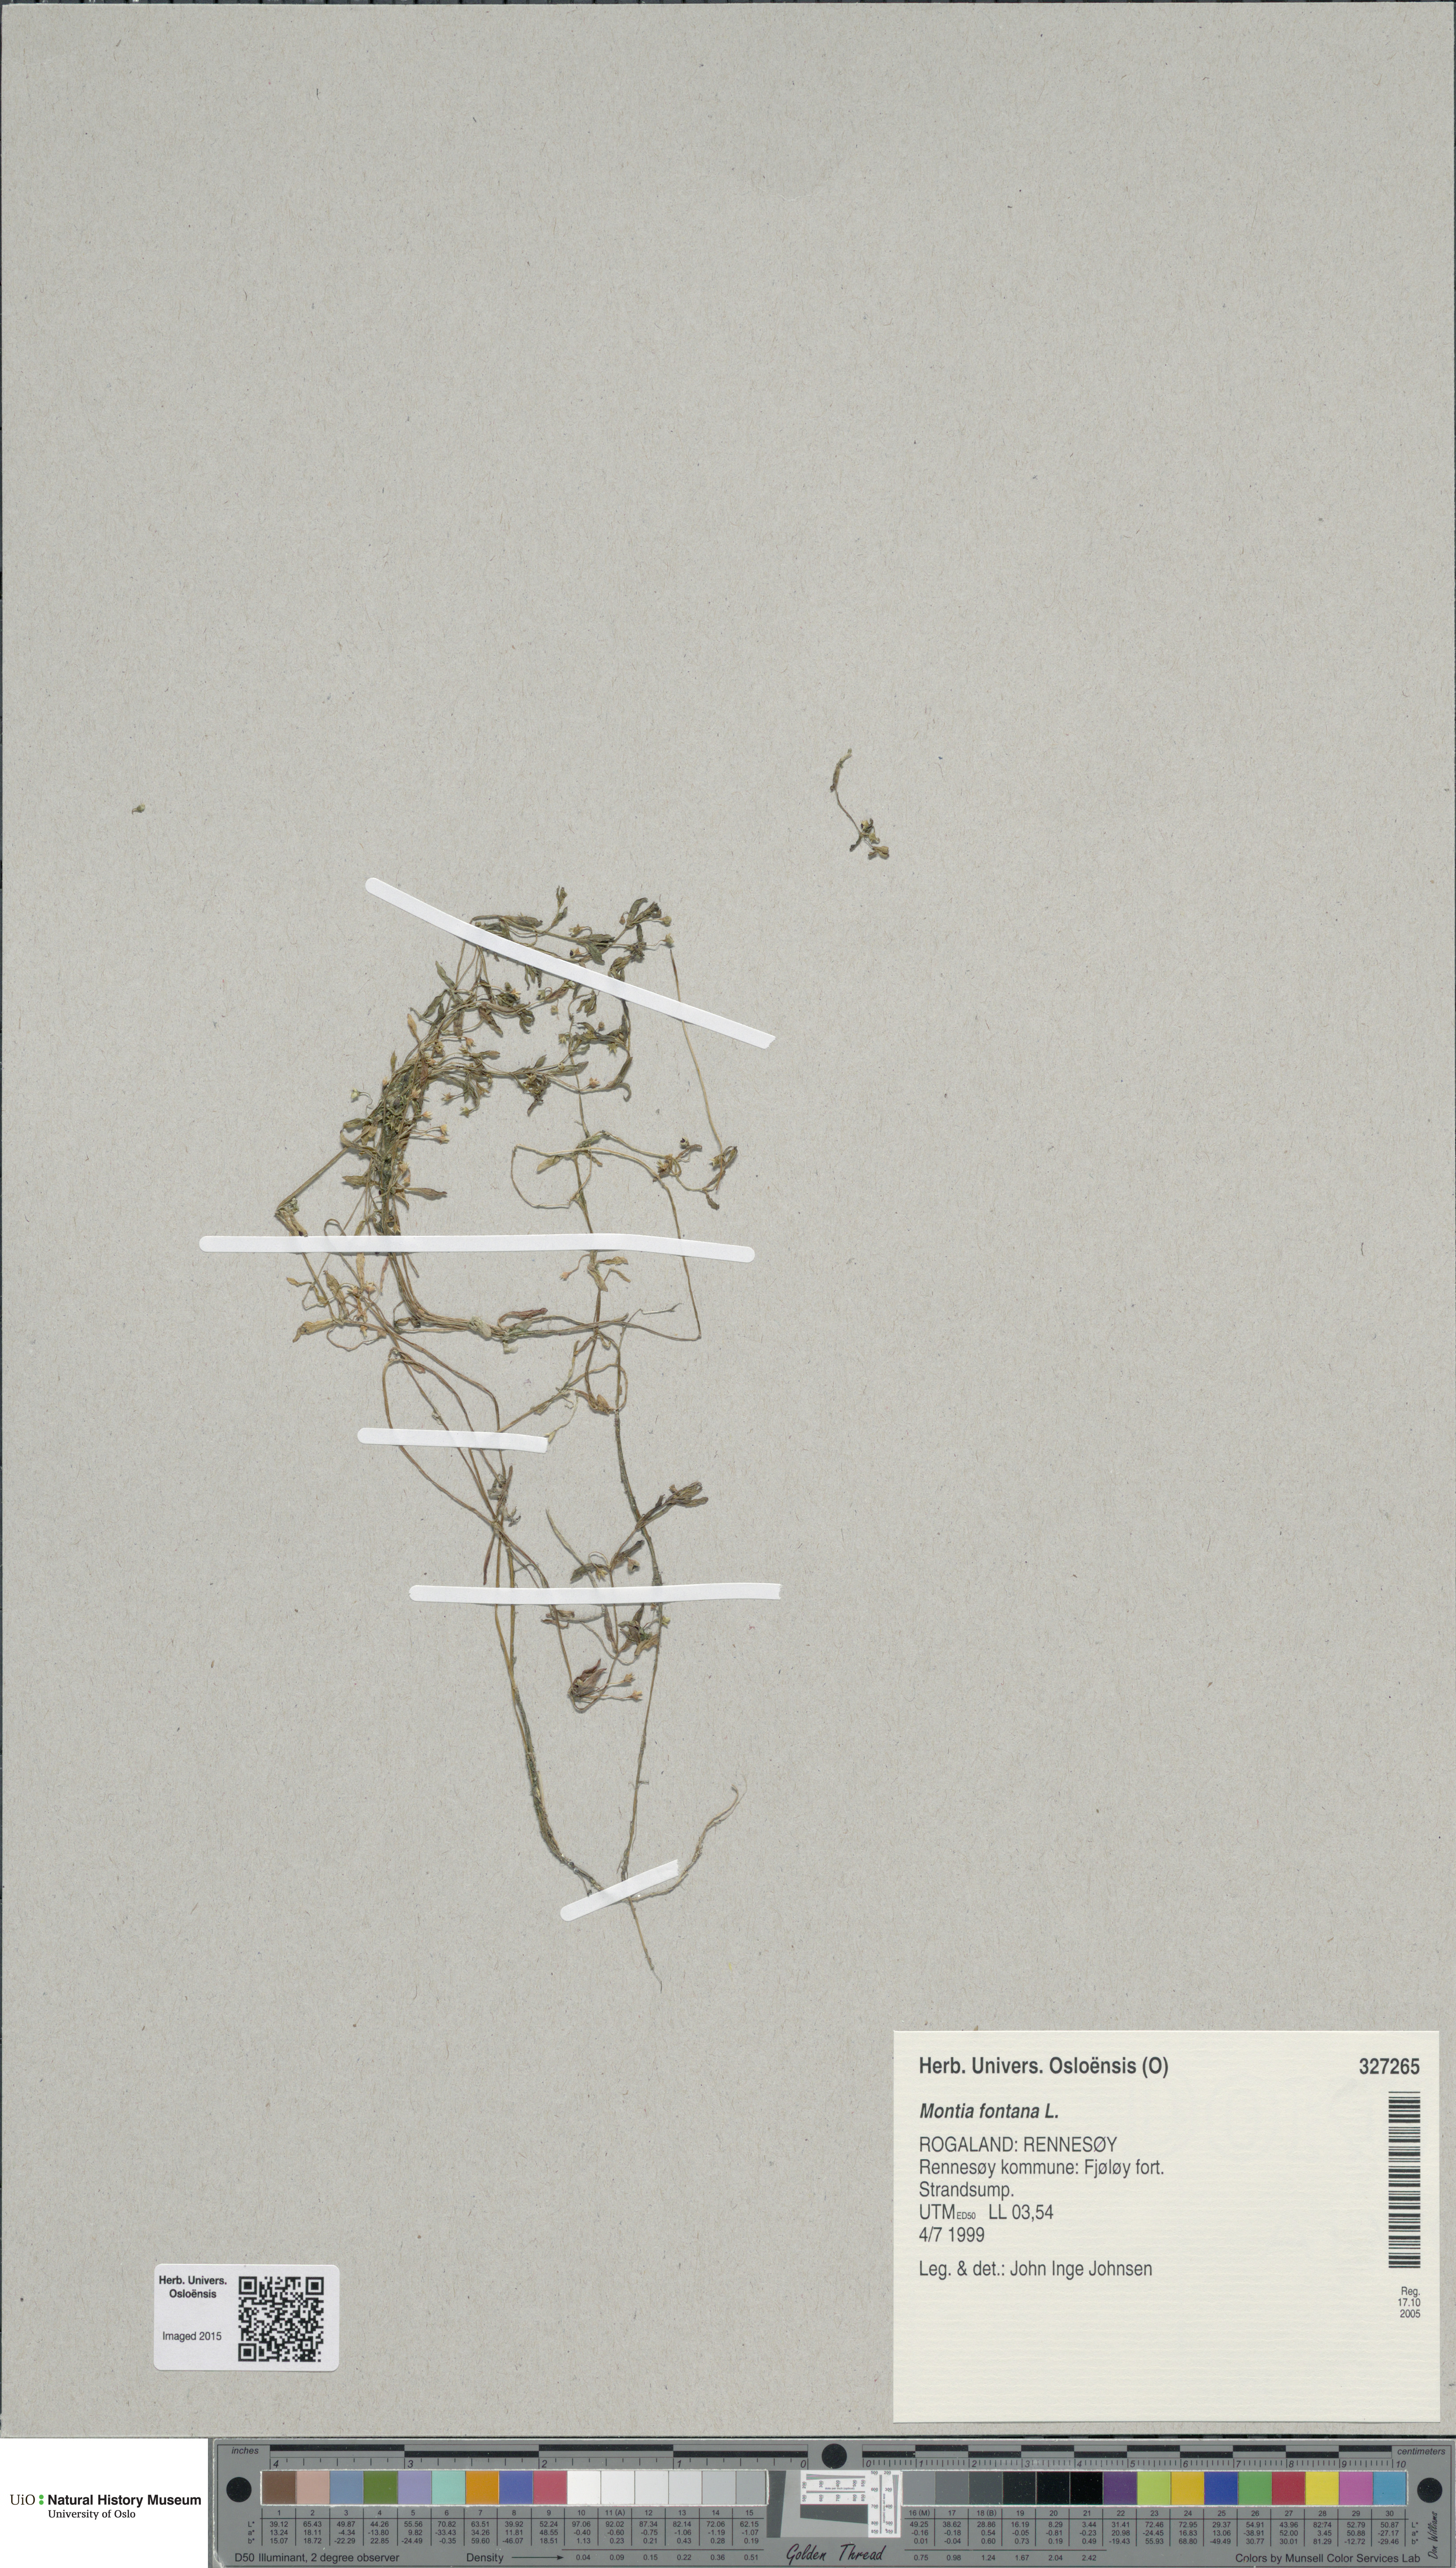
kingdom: Plantae
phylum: Tracheophyta
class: Magnoliopsida
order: Caryophyllales
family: Montiaceae
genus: Montia
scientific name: Montia fontana
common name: Blinks
